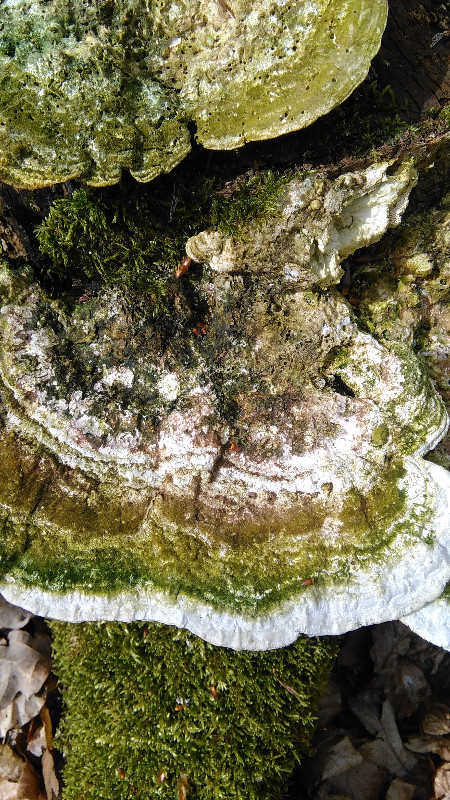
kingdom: Fungi
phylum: Basidiomycota
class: Agaricomycetes
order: Polyporales
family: Polyporaceae
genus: Trametes
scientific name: Trametes gibbosa
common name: puklet læderporesvamp
